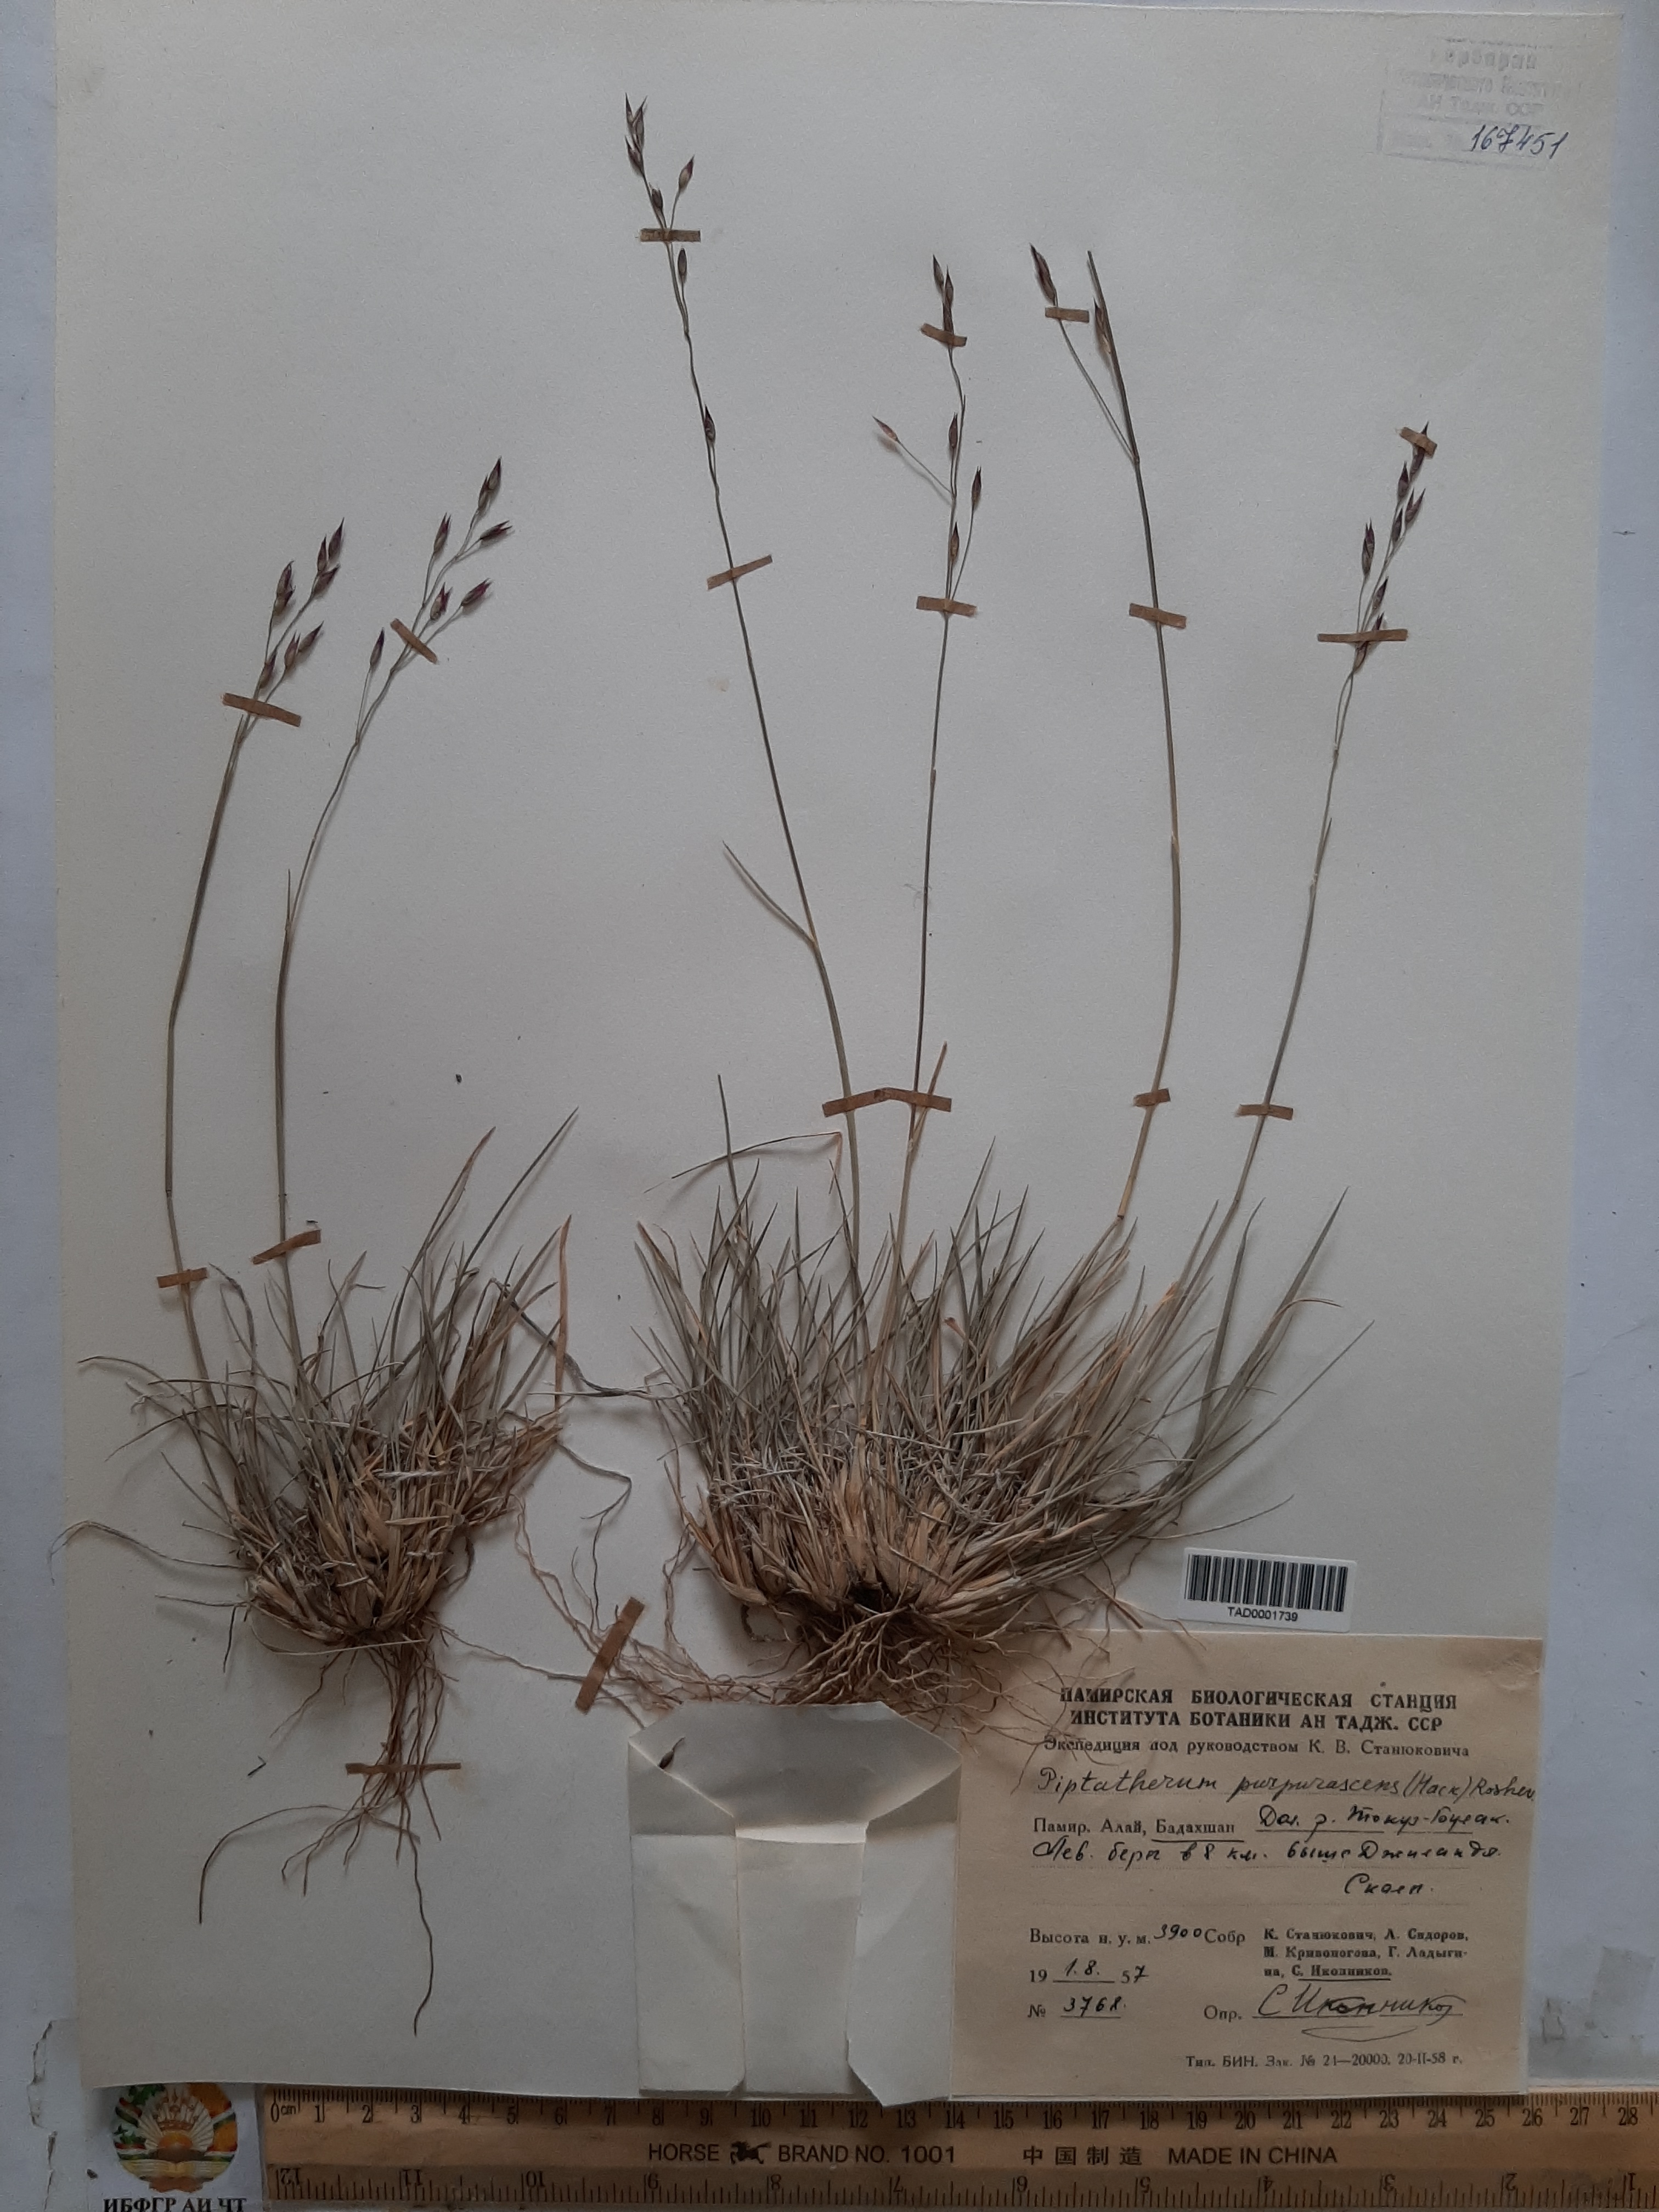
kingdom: Plantae
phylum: Tracheophyta
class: Liliopsida
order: Poales
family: Poaceae
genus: Piptatherum
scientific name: Piptatherum pamiralaicum
